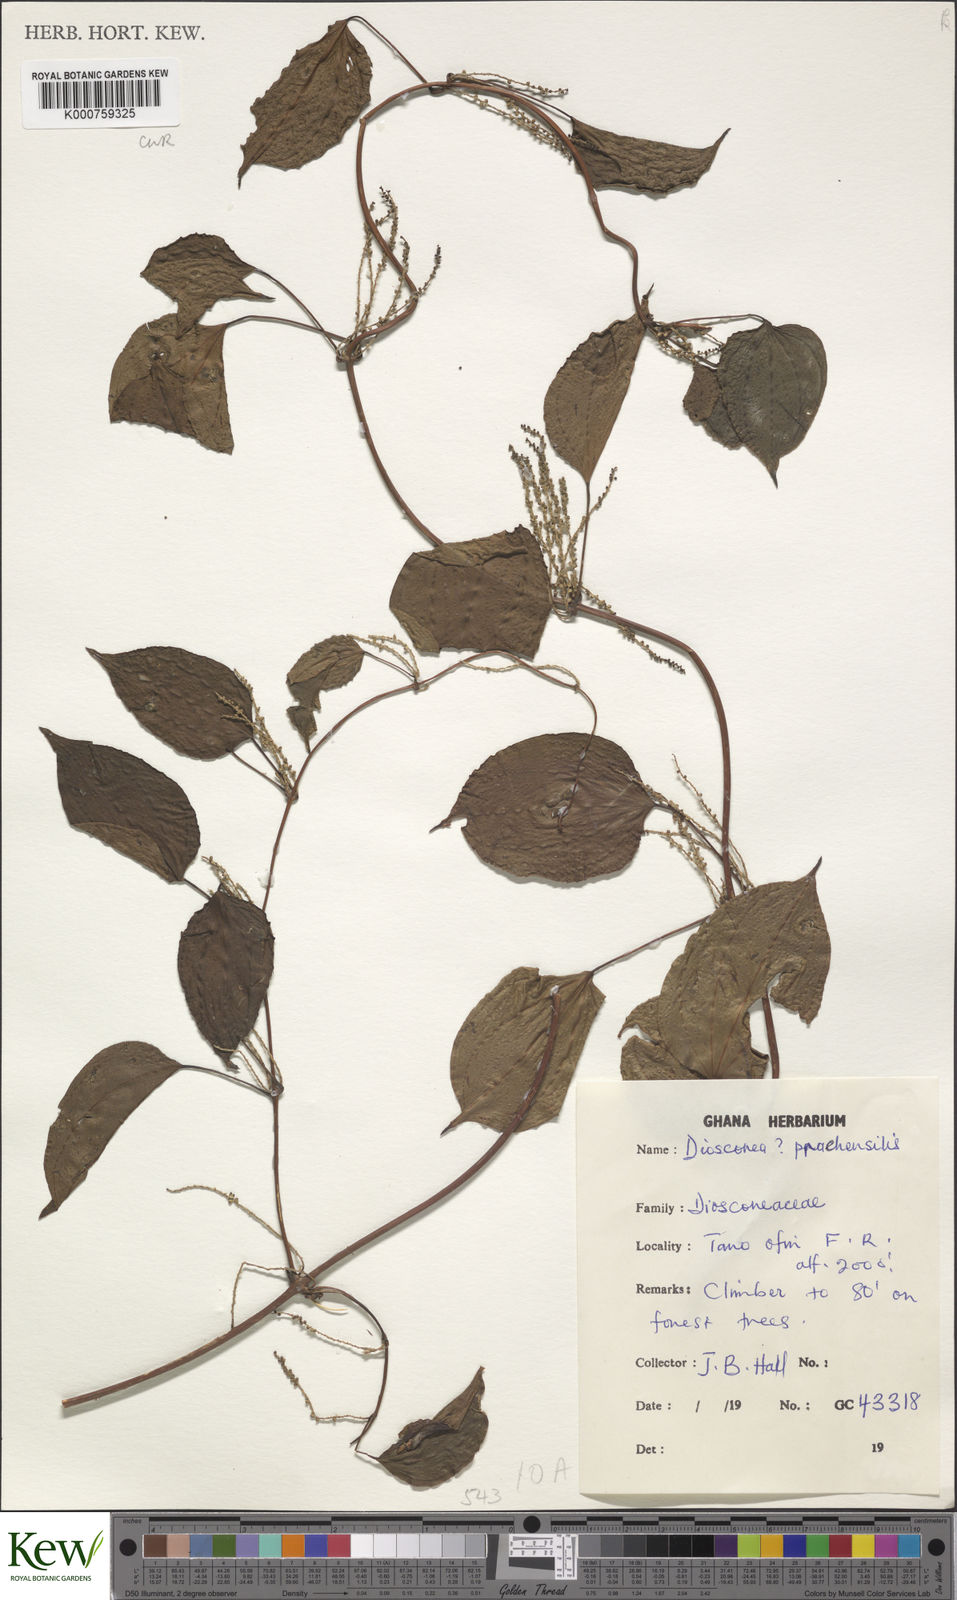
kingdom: Plantae
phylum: Tracheophyta
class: Liliopsida
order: Dioscoreales
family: Dioscoreaceae
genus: Dioscorea
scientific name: Dioscorea praehensilis
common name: Bush yam
